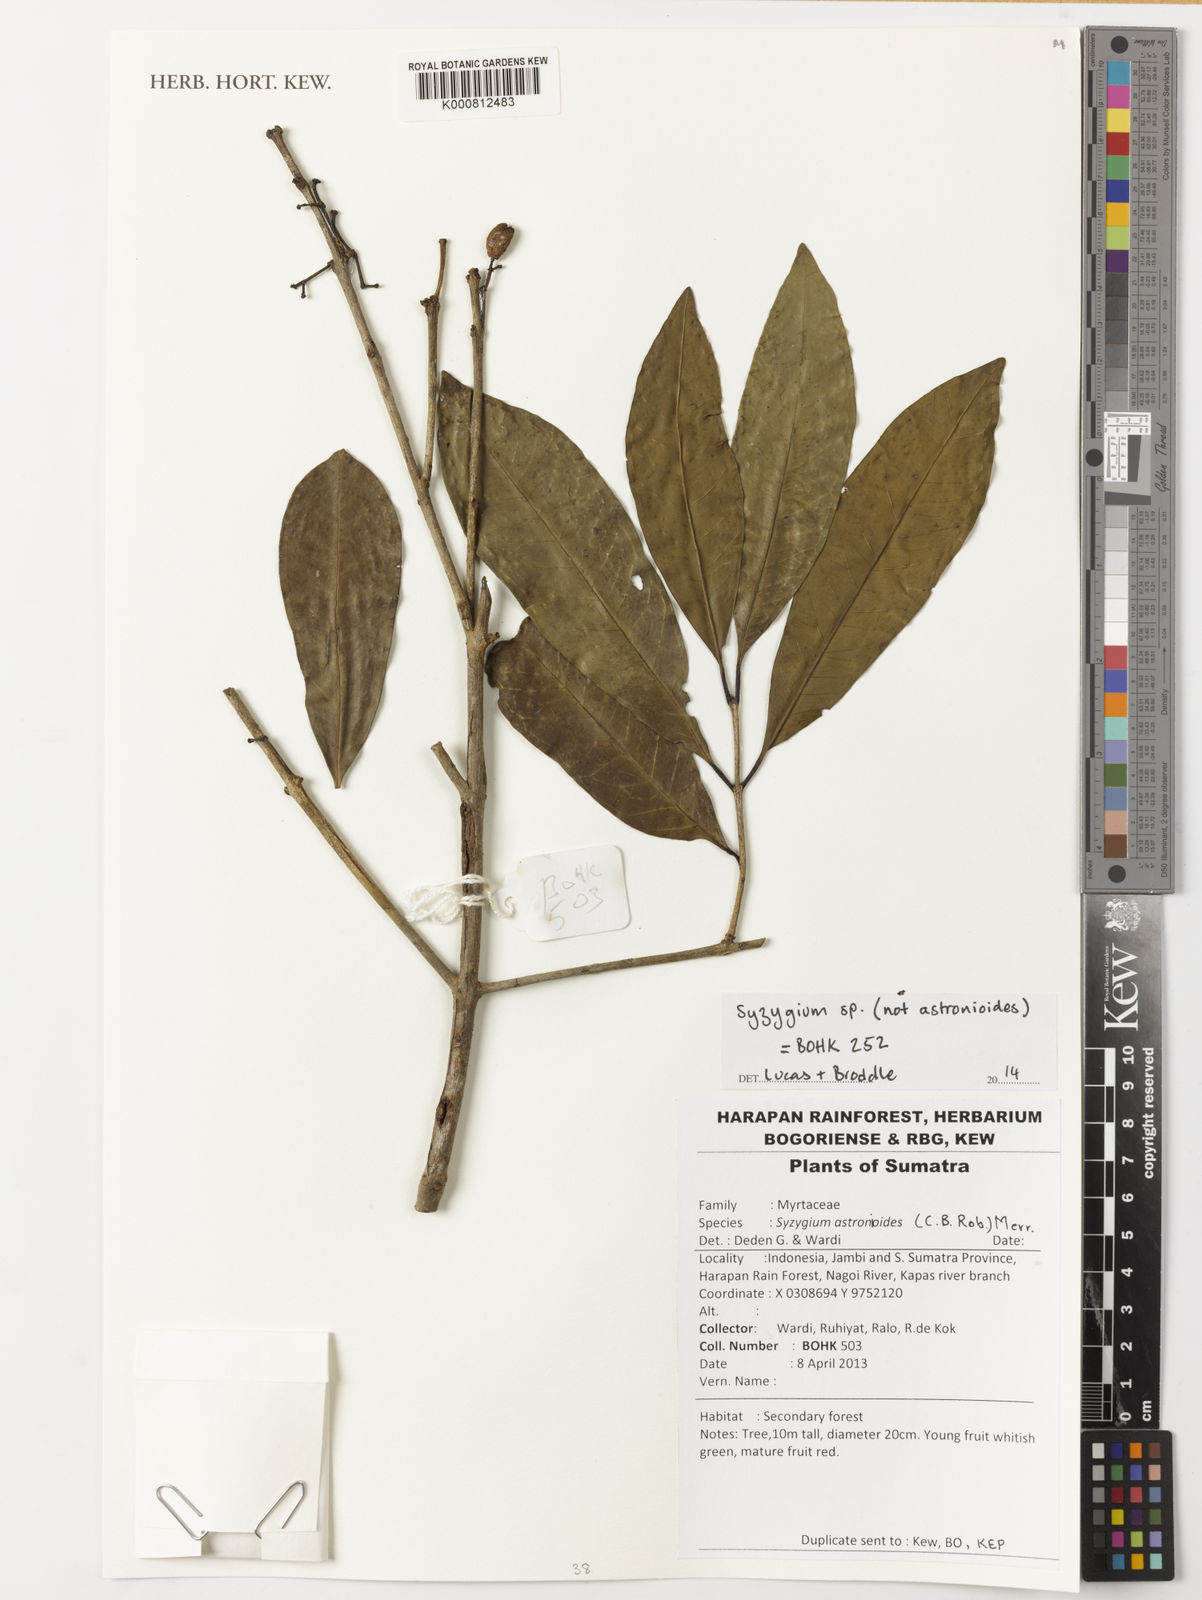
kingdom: Plantae
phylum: Tracheophyta
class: Magnoliopsida
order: Myrtales
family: Myrtaceae
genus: Syzygium
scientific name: Syzygium
